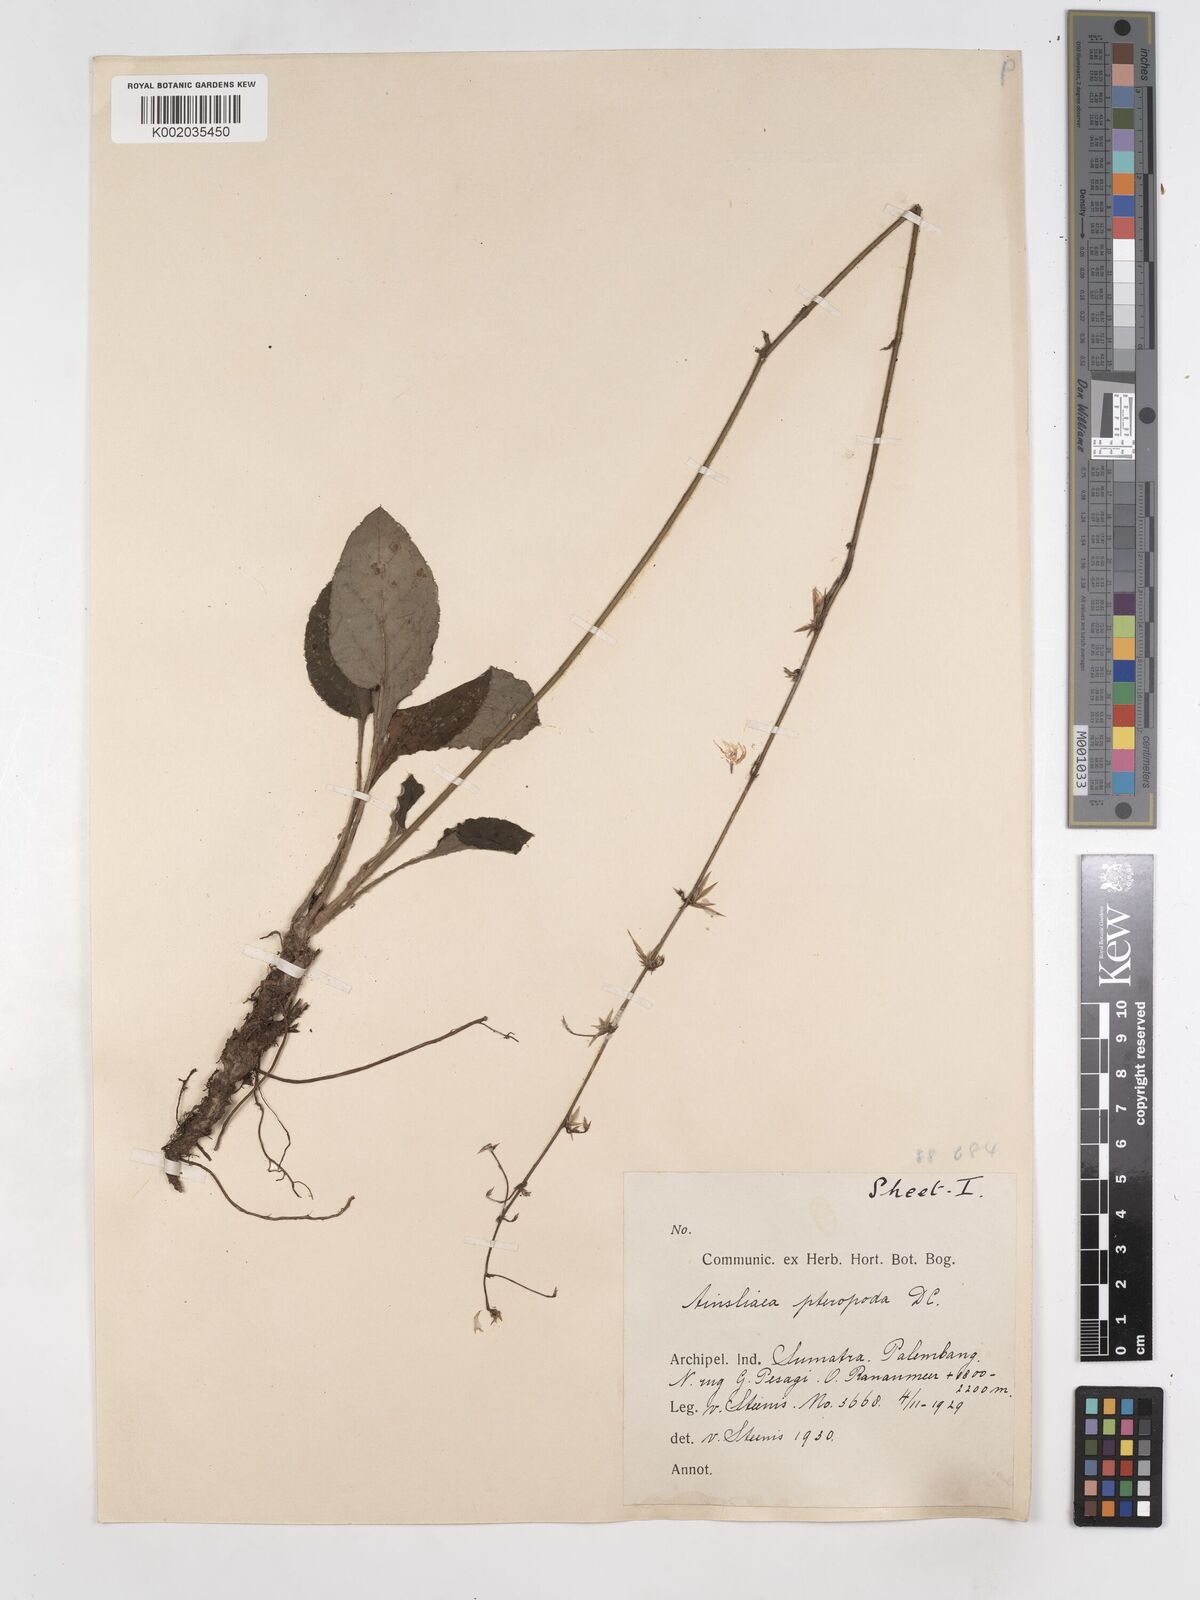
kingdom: Plantae
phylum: Tracheophyta
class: Magnoliopsida
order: Asterales
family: Asteraceae
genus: Ainsliaea
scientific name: Ainsliaea latifolia
